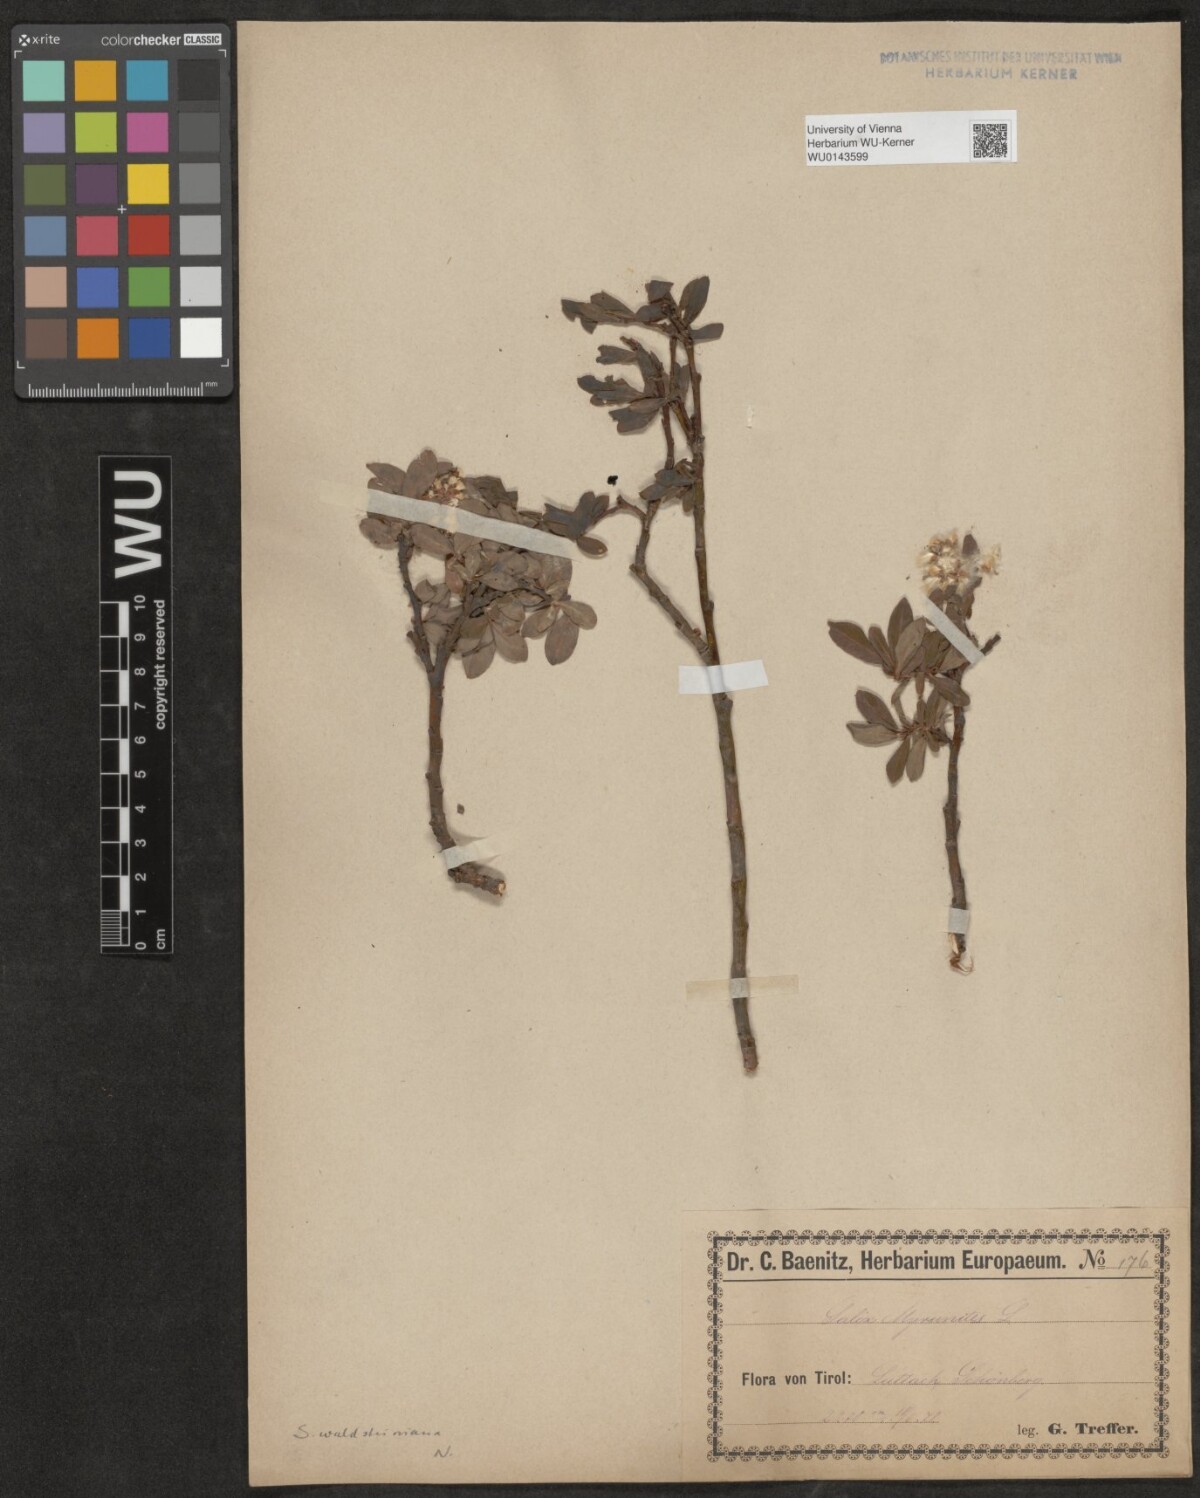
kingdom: Plantae
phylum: Tracheophyta
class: Magnoliopsida
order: Malpighiales
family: Salicaceae
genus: Salix
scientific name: Salix waldsteiniana
